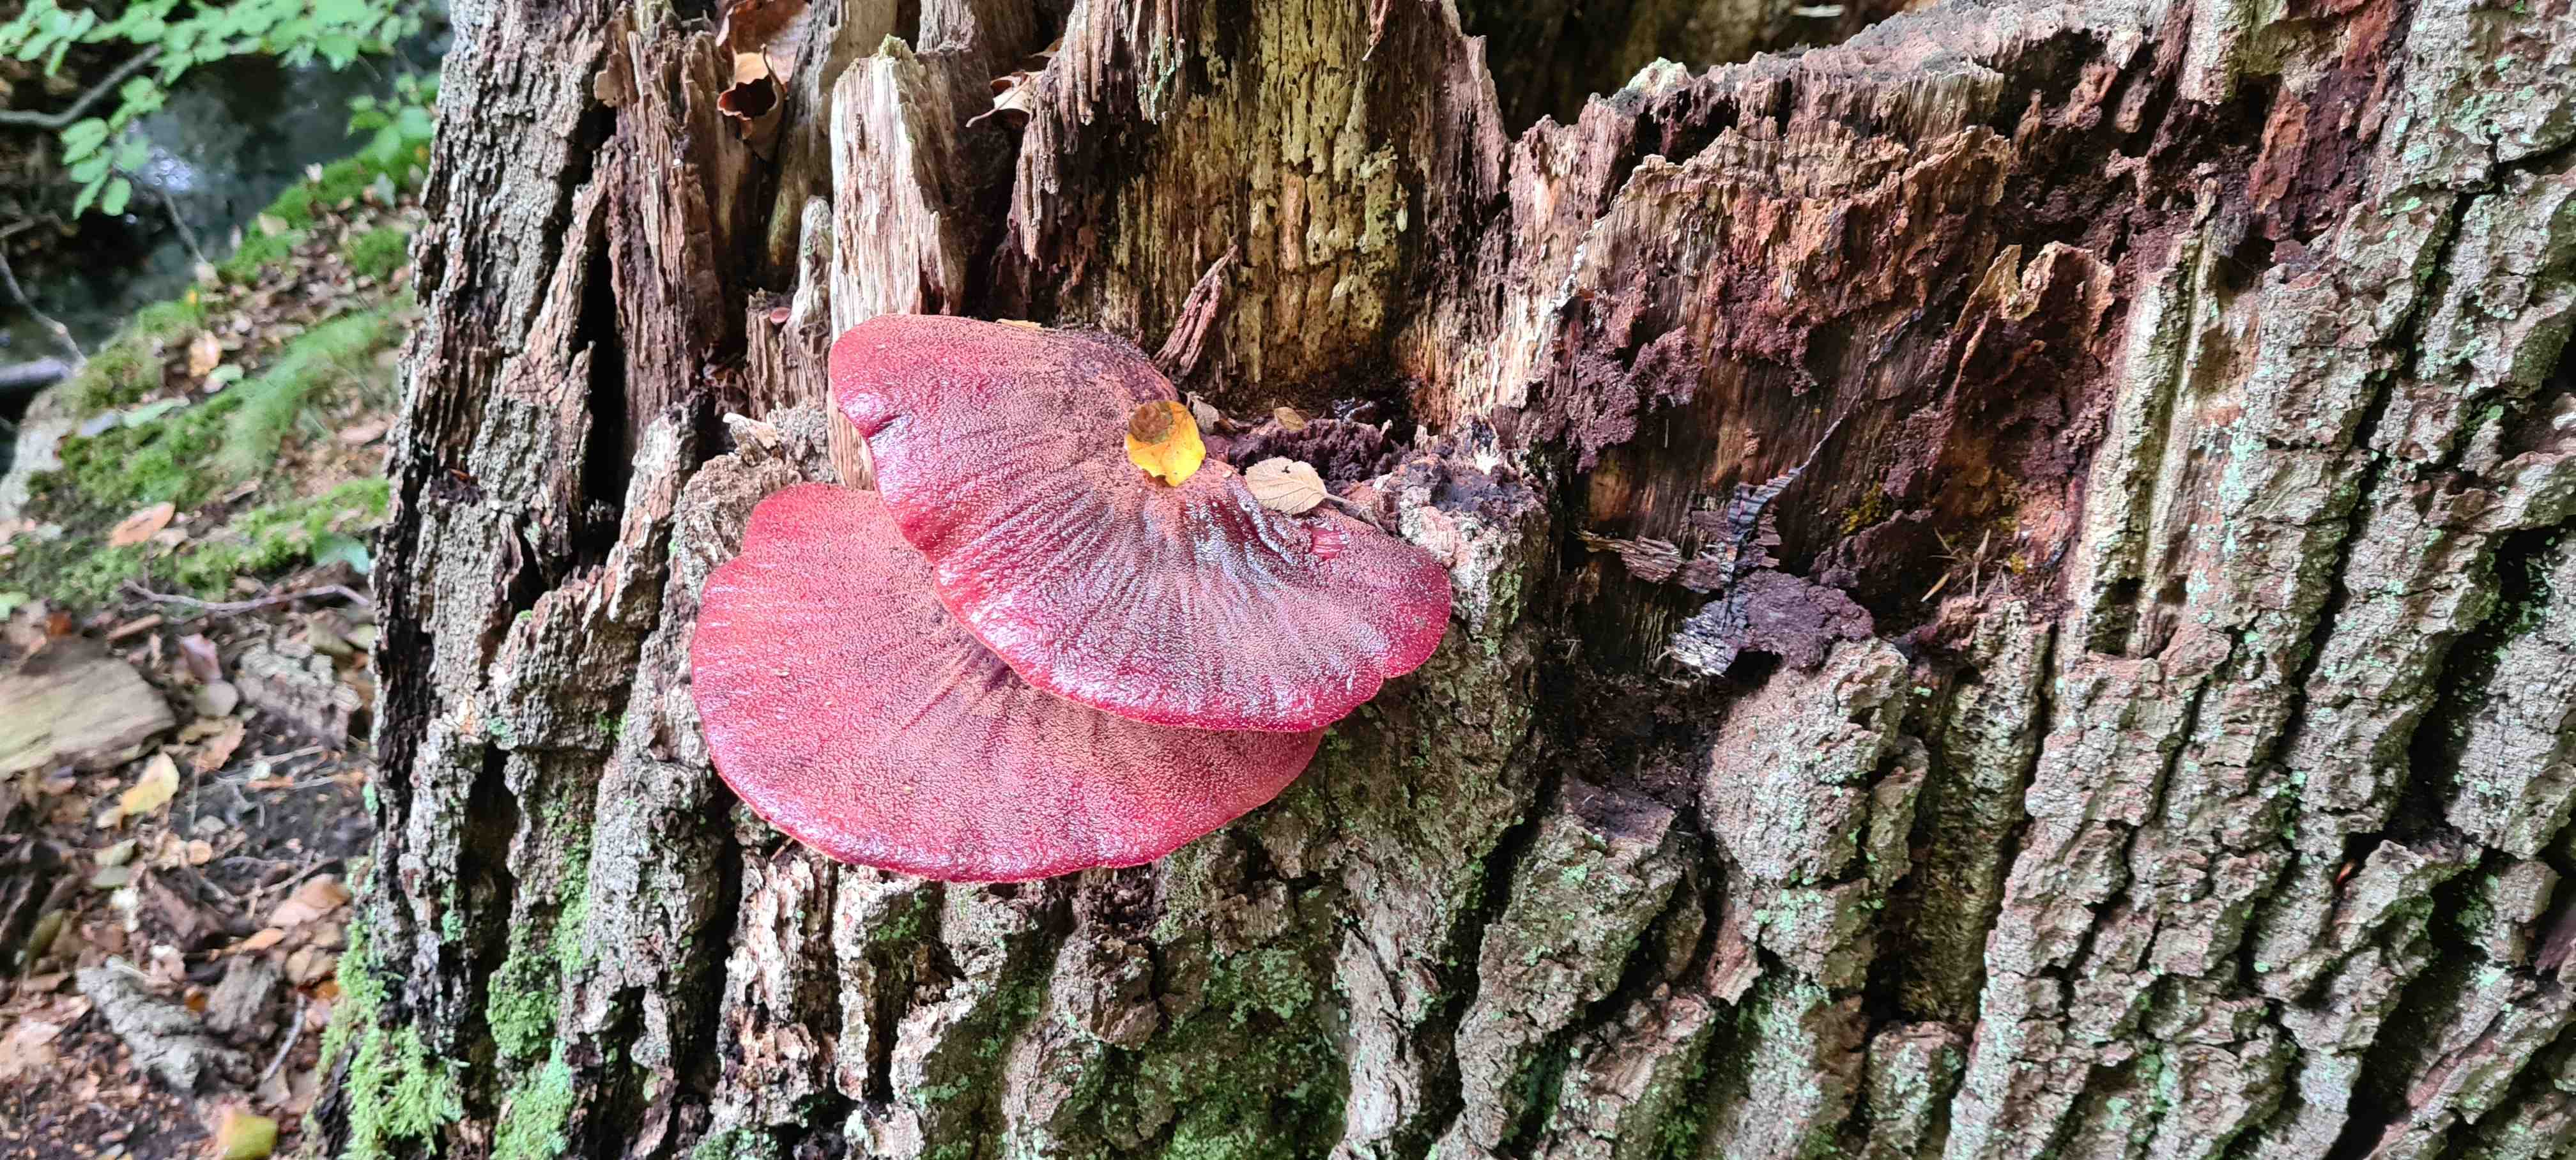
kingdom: Fungi
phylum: Basidiomycota
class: Agaricomycetes
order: Agaricales
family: Fistulinaceae
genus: Fistulina
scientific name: Fistulina hepatica
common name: oksetunge
